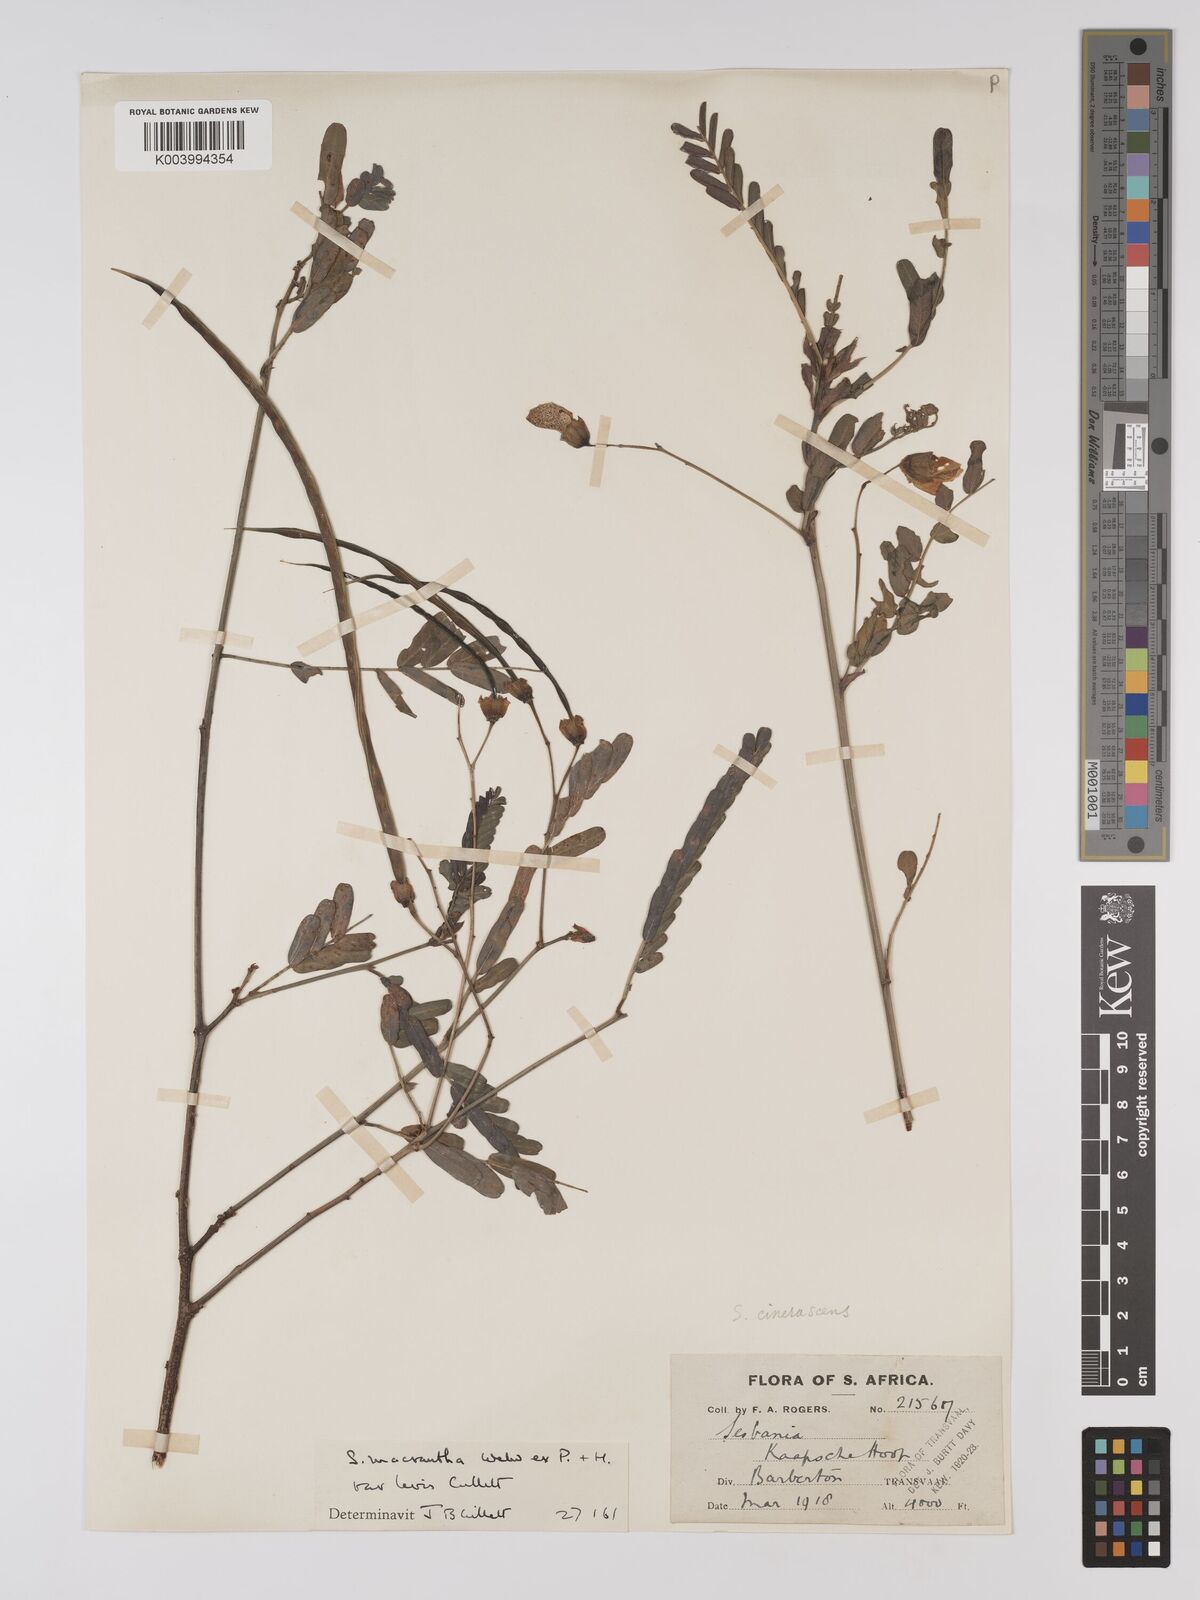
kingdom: Plantae
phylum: Tracheophyta
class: Magnoliopsida
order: Fabales
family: Fabaceae
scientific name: Fabaceae
